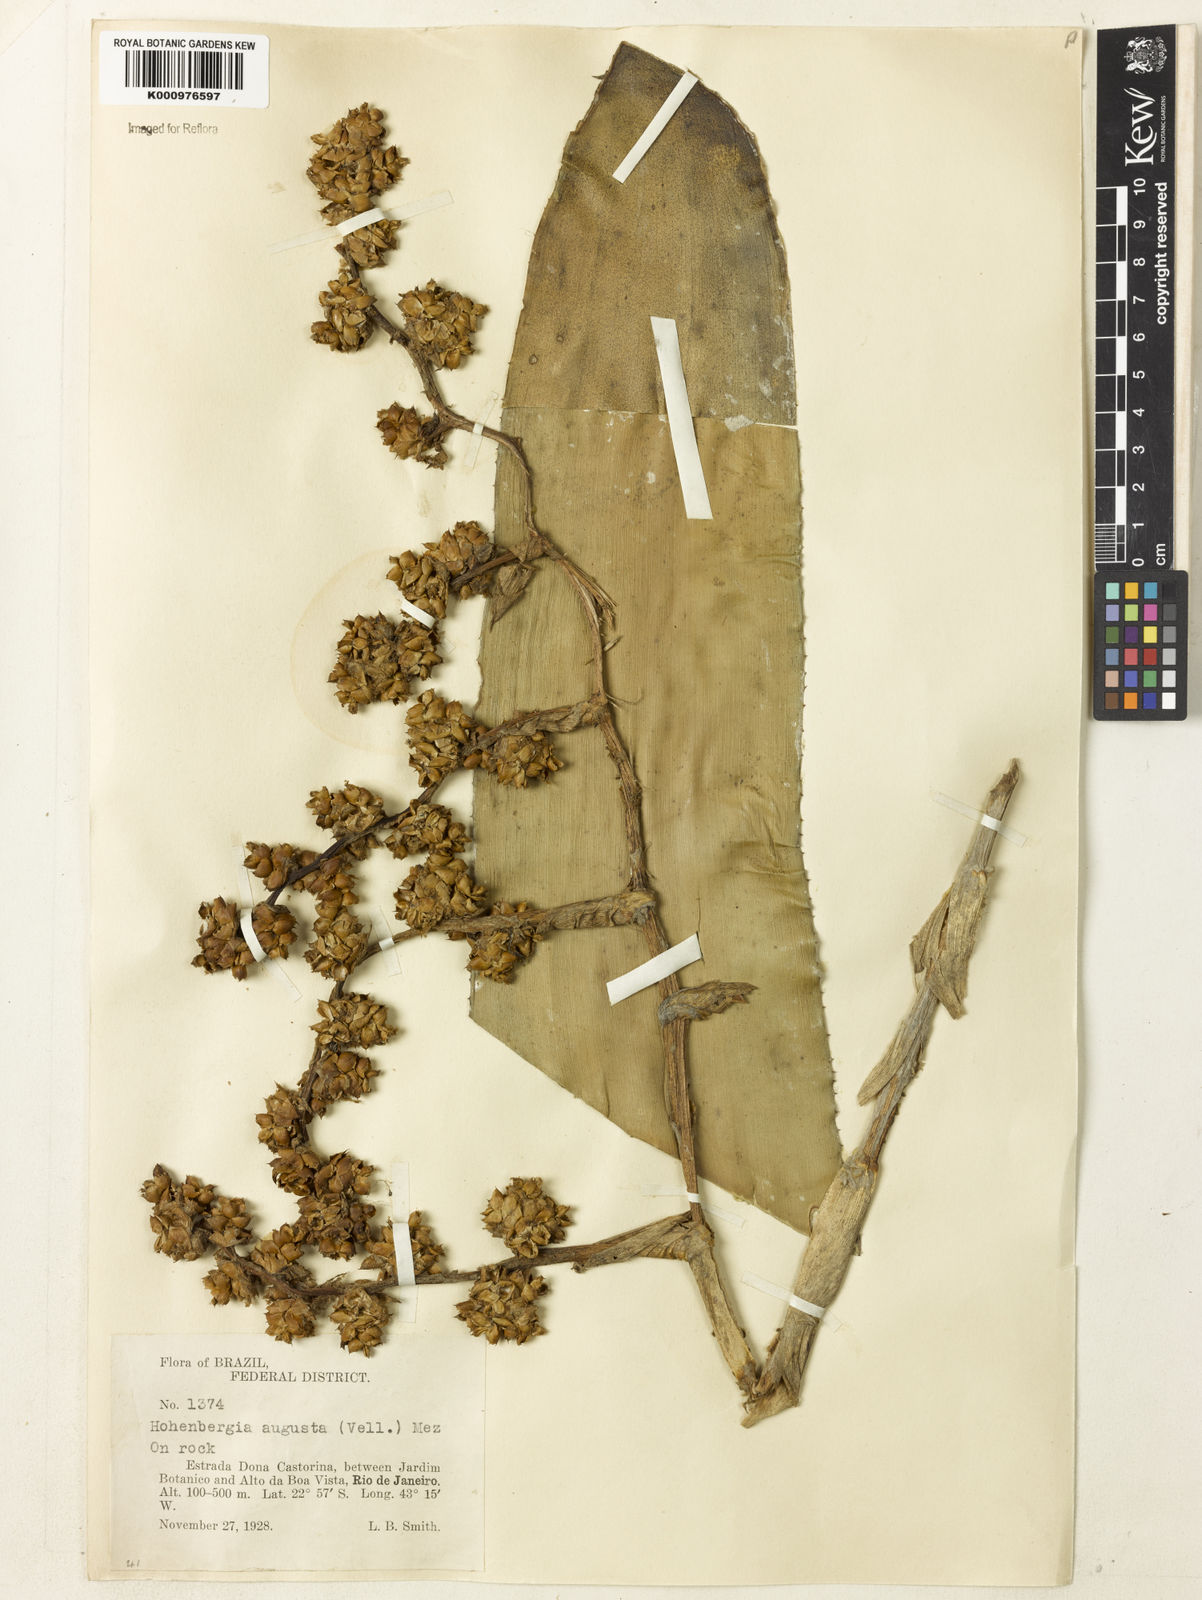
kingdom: Plantae
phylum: Tracheophyta
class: Liliopsida
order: Poales
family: Bromeliaceae
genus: Hohenbergia
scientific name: Hohenbergia augusta
